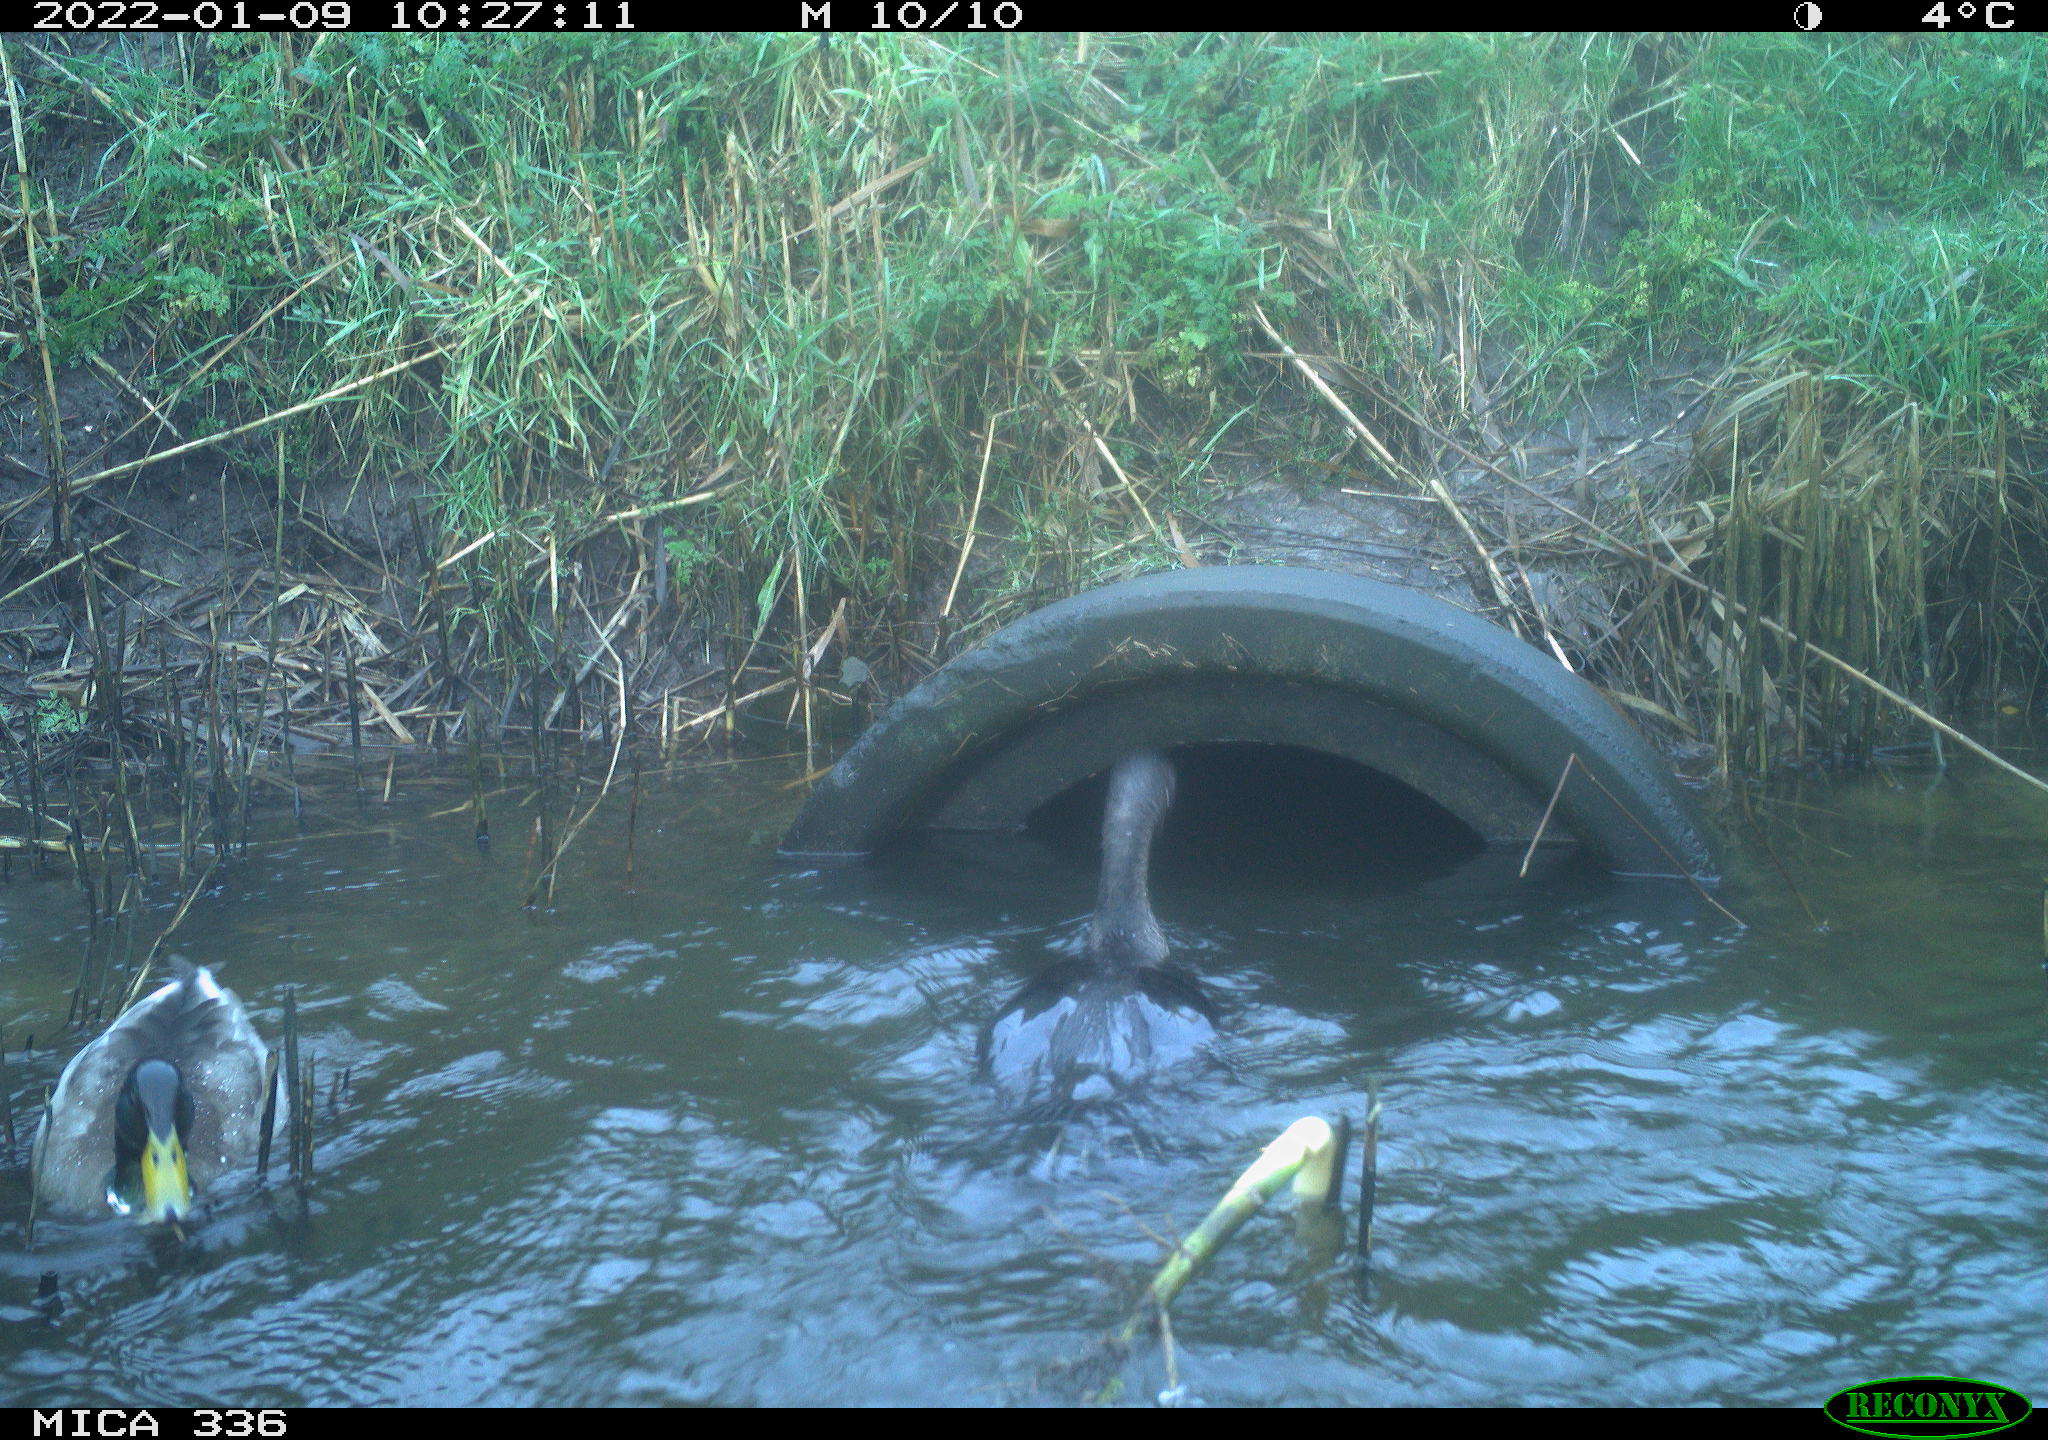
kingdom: Animalia
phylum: Chordata
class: Aves
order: Anseriformes
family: Anatidae
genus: Anas
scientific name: Anas platyrhynchos
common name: Mallard
